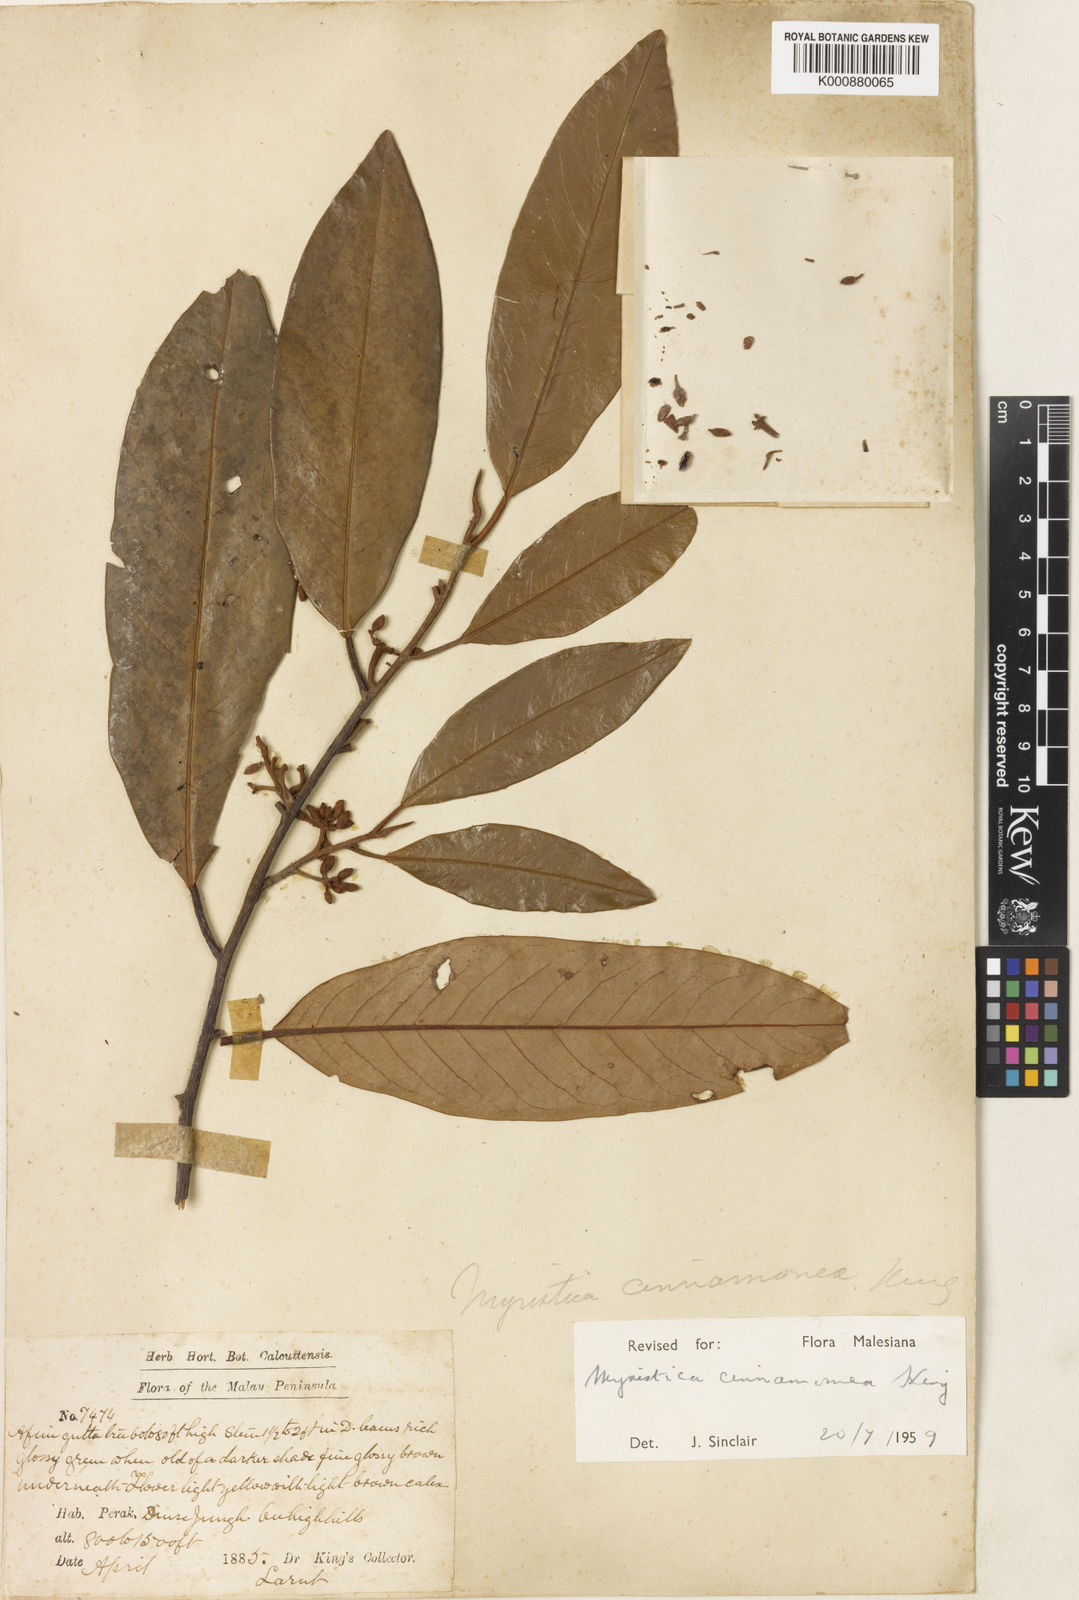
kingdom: Plantae
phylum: Tracheophyta
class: Magnoliopsida
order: Magnoliales
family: Myristicaceae
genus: Myristica
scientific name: Myristica cinnamomea
